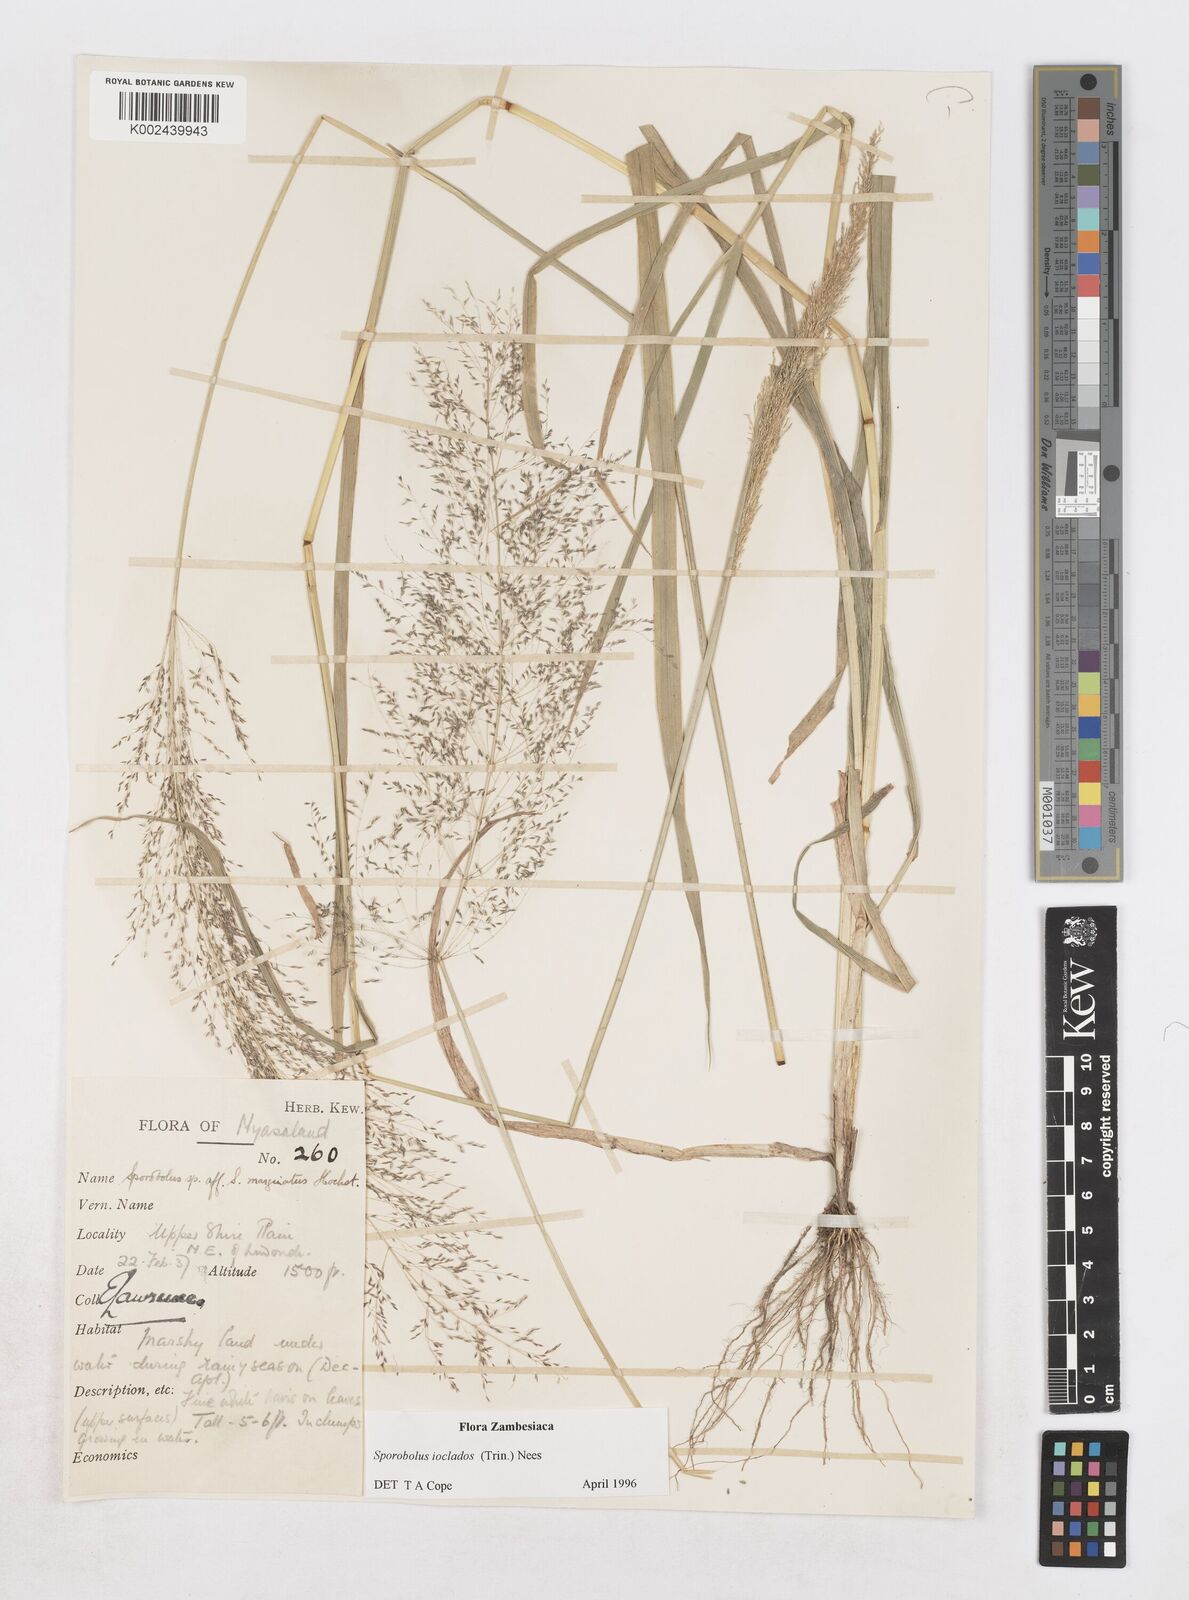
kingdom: Plantae
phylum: Tracheophyta
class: Liliopsida
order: Poales
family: Poaceae
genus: Sporobolus
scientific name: Sporobolus ioclados
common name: Pan dropseed
